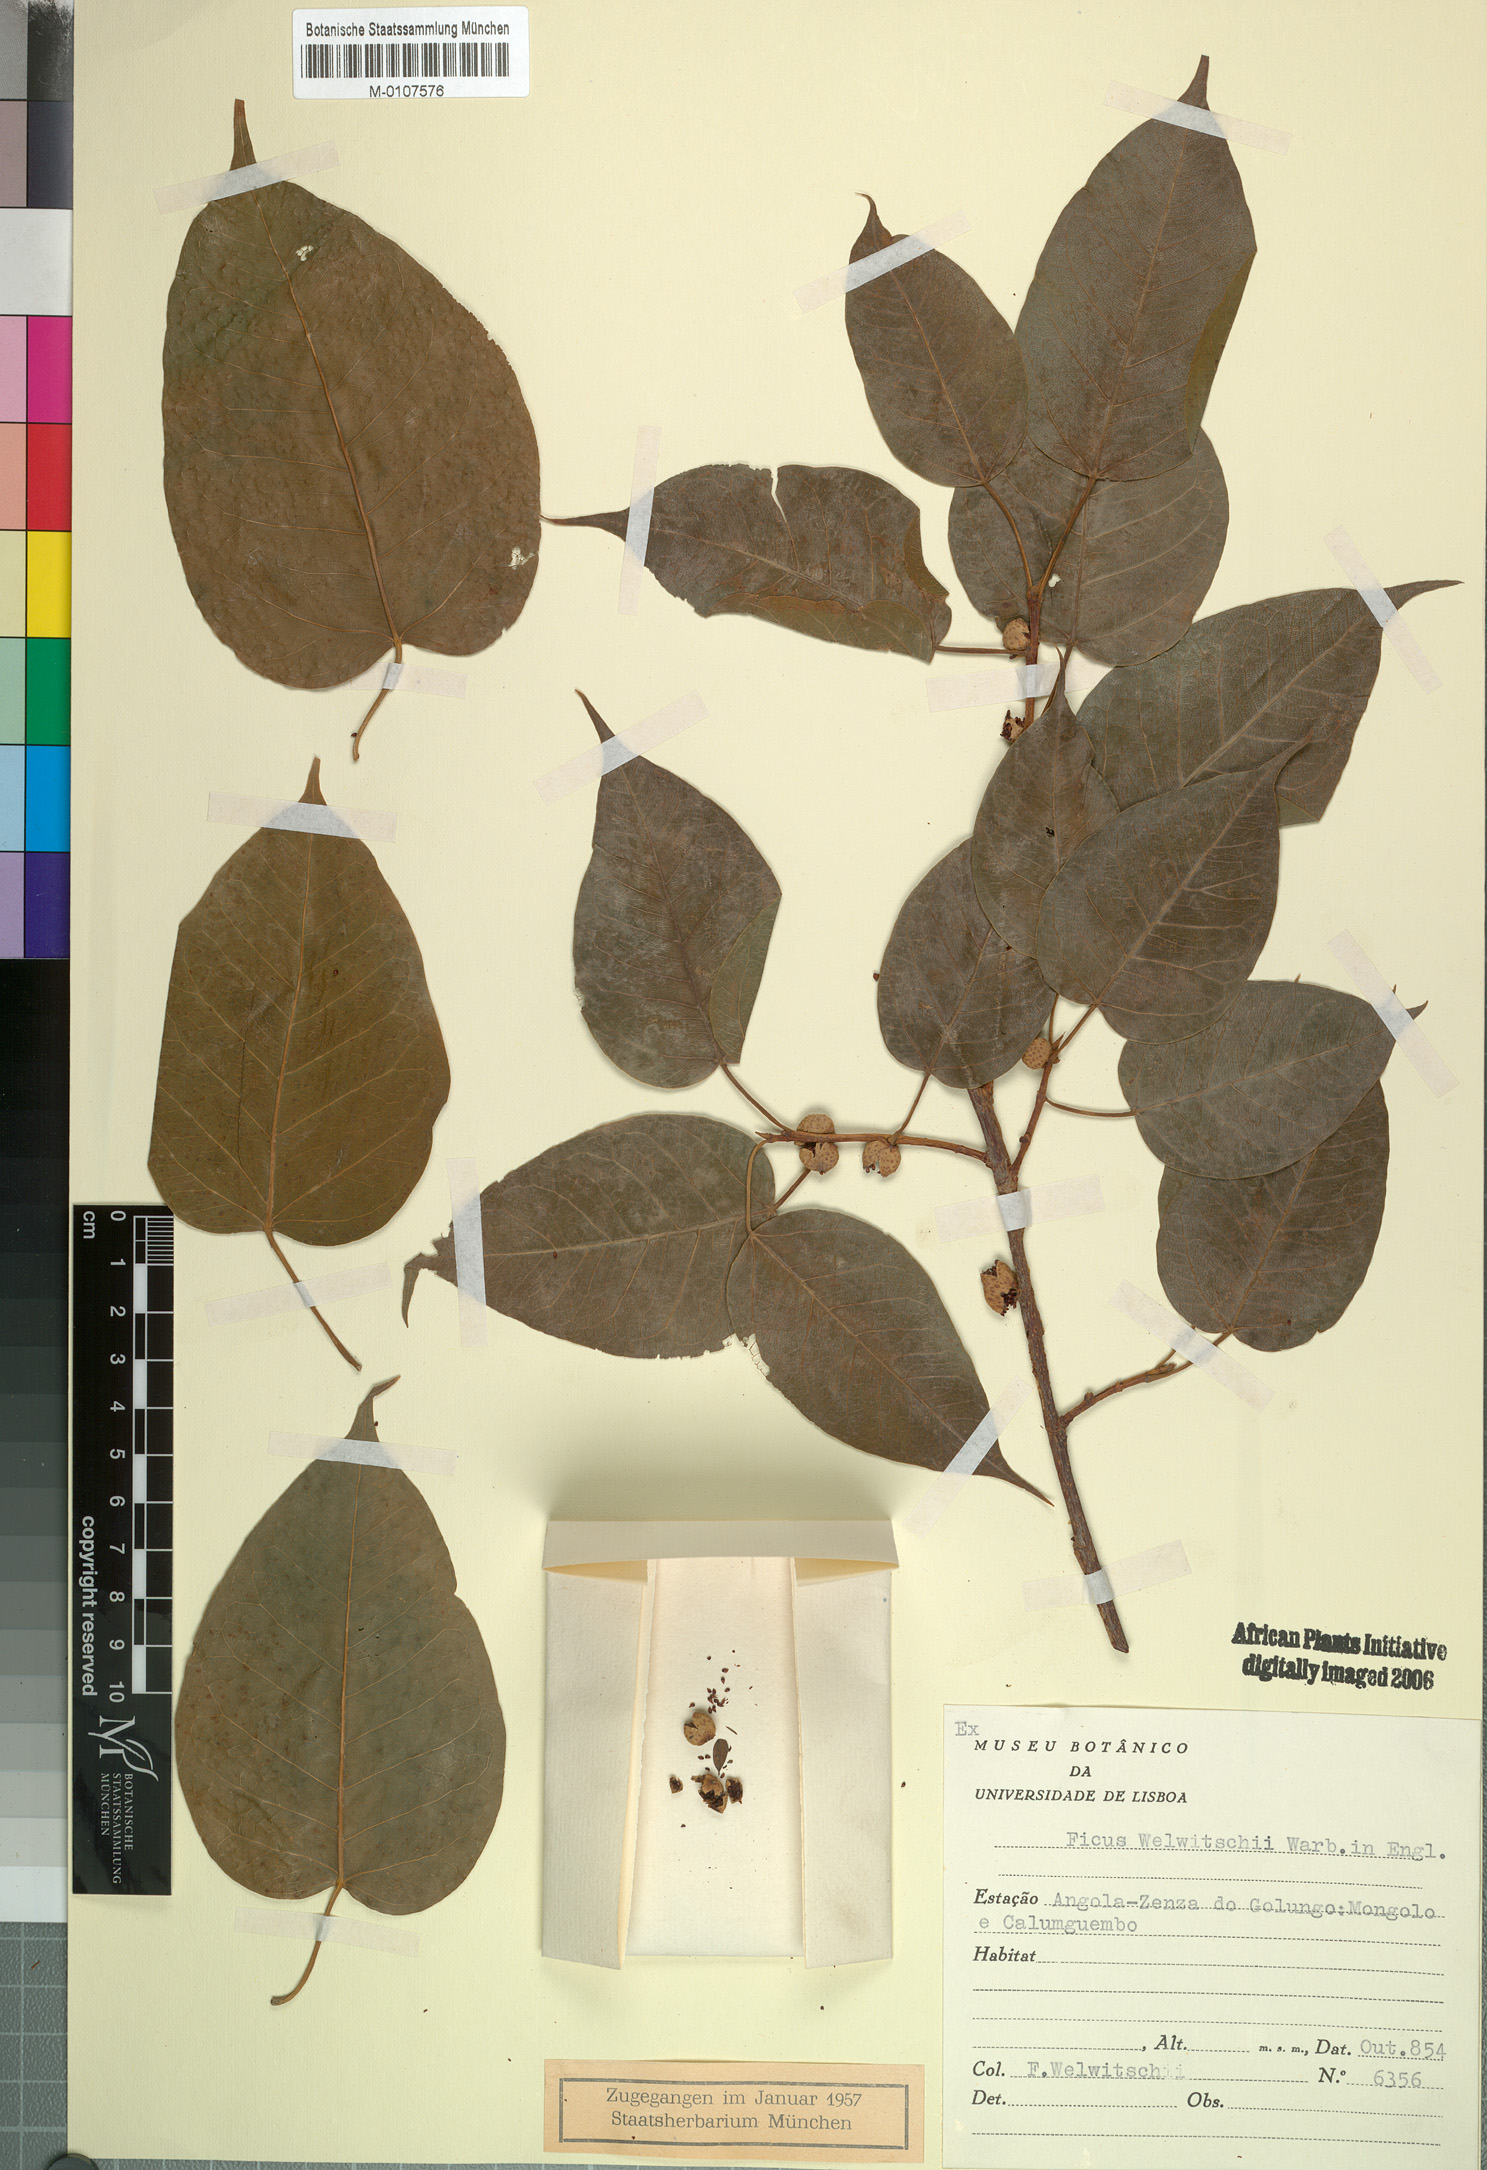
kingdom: Plantae
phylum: Tracheophyta
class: Magnoliopsida
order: Rosales
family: Moraceae
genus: Ficus
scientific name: Ficus cordata
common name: Namaqua rock fig
